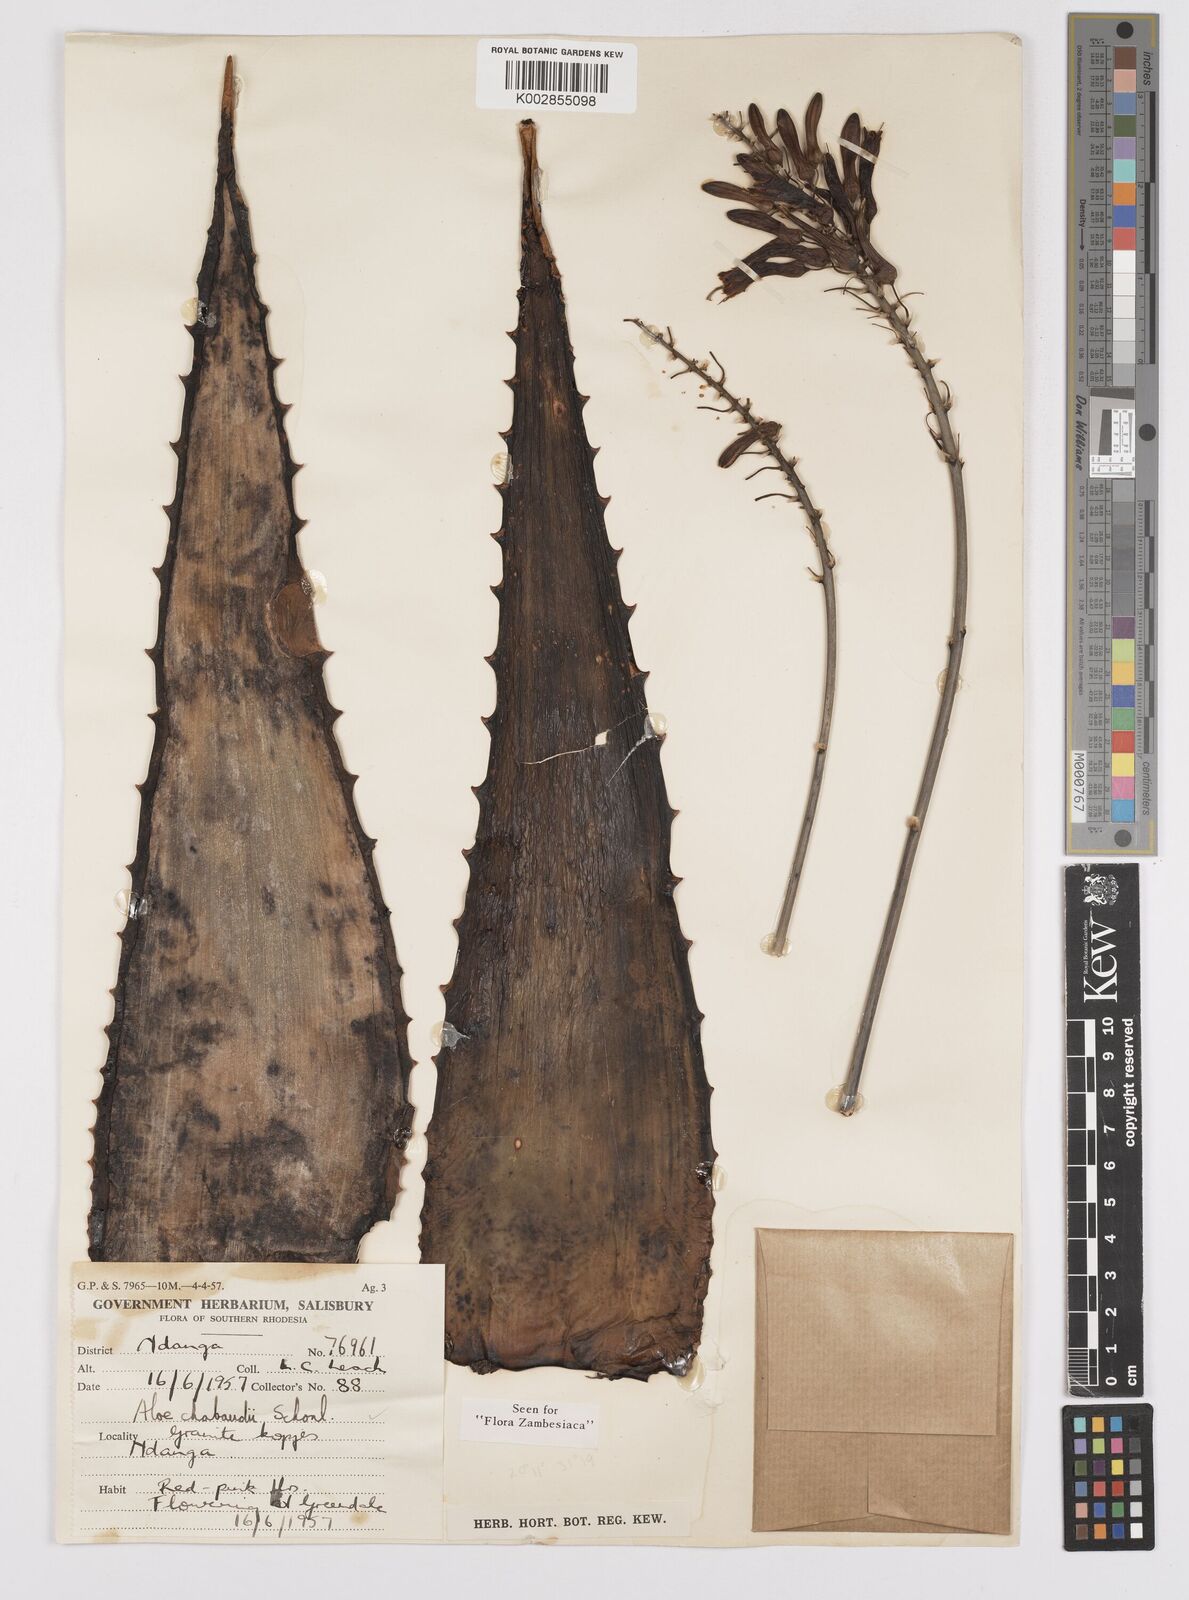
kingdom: Plantae
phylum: Tracheophyta
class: Liliopsida
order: Asparagales
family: Asphodelaceae
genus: Aloe
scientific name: Aloe chabaudii
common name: Chabaud's aloe
